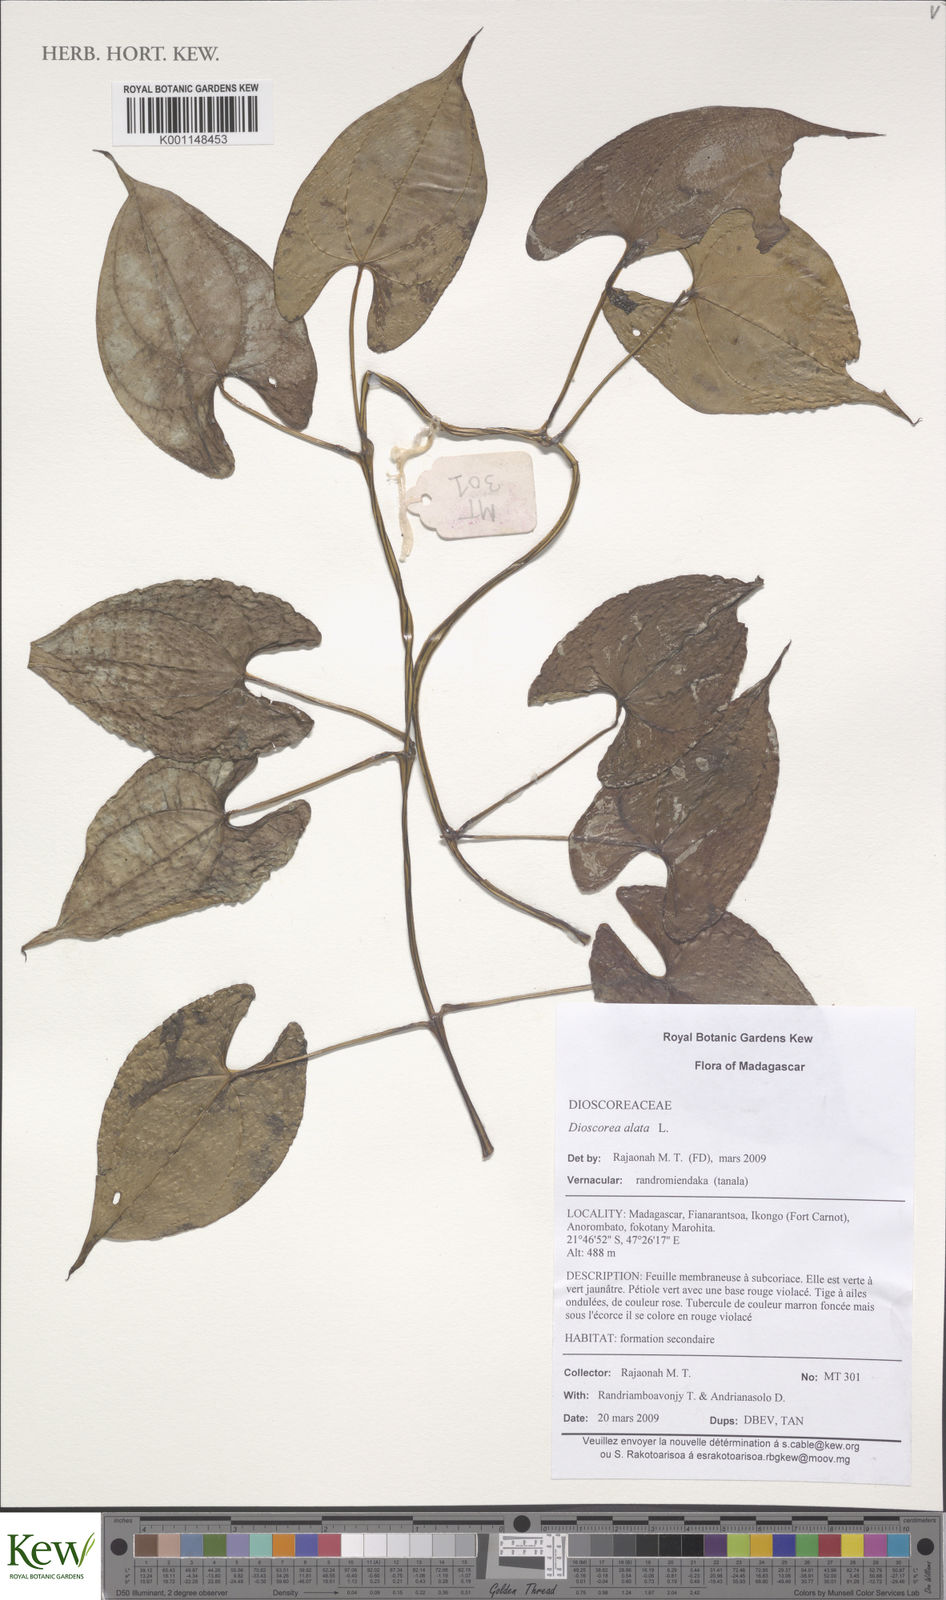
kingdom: Plantae
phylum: Tracheophyta
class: Liliopsida
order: Dioscoreales
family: Dioscoreaceae
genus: Dioscorea
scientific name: Dioscorea alata
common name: Water yam
